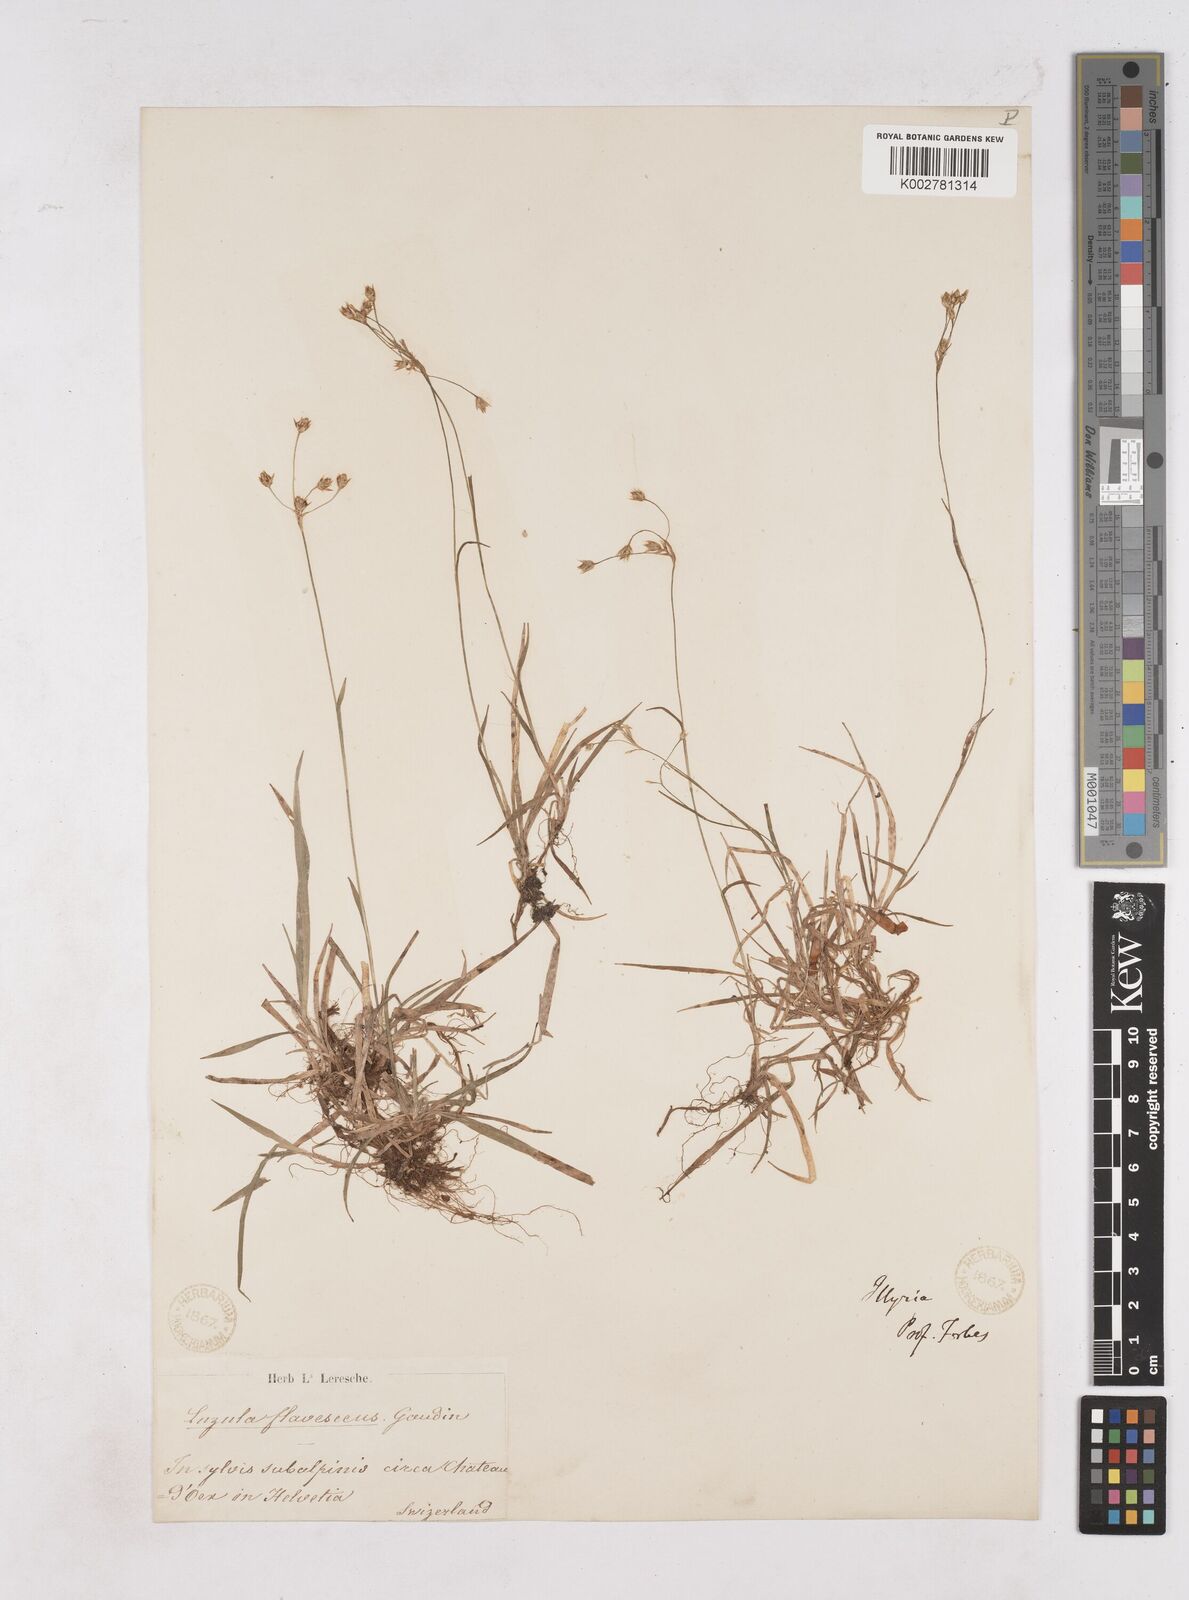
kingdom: Plantae
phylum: Tracheophyta
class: Liliopsida
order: Poales
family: Juncaceae
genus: Luzula
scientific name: Luzula luzulina
